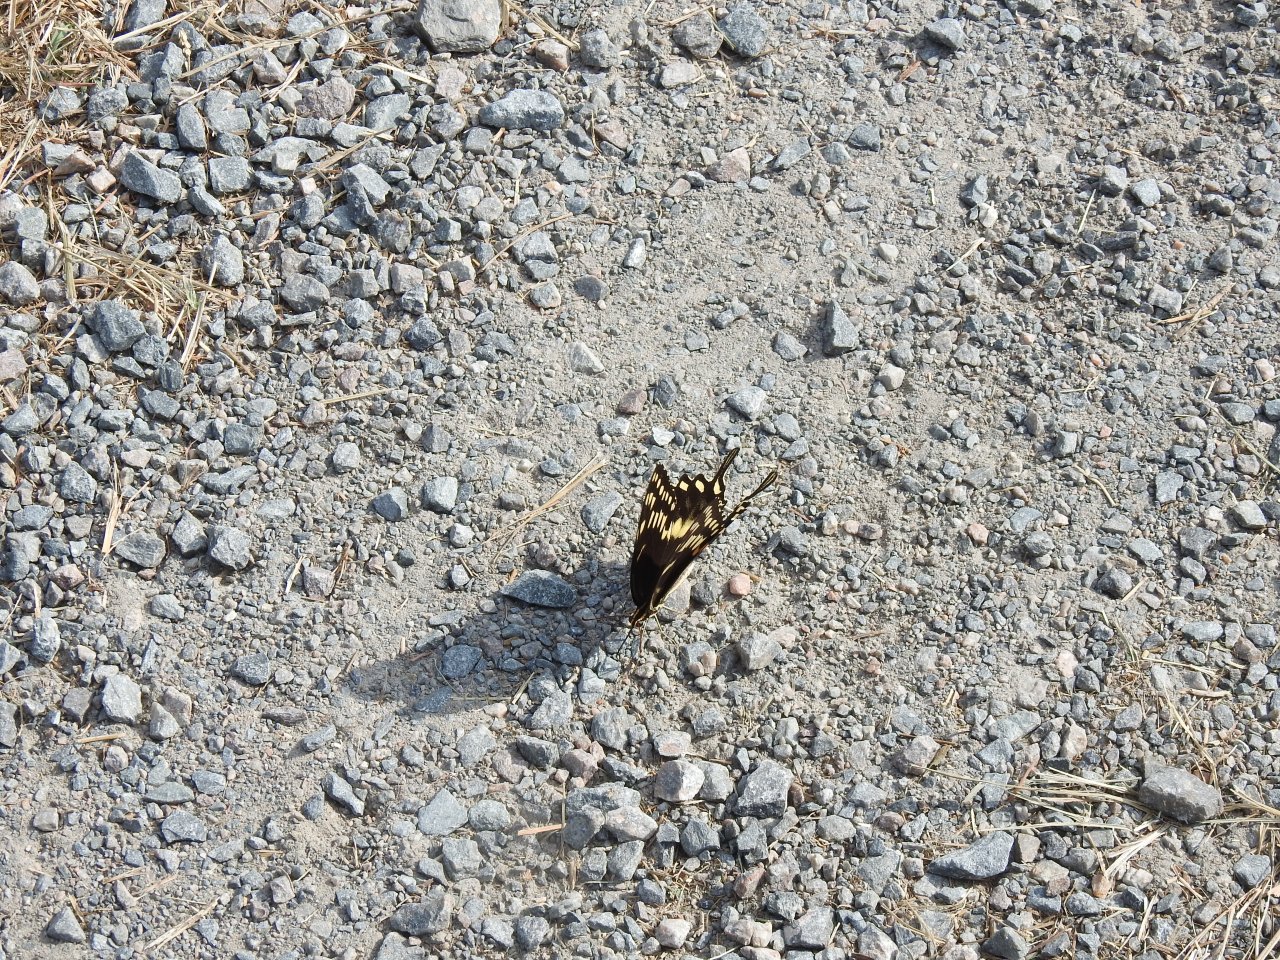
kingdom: Animalia
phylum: Arthropoda
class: Insecta
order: Lepidoptera
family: Papilionidae
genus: Pterourus
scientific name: Pterourus palamedes
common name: Palamedes Swallowtail
